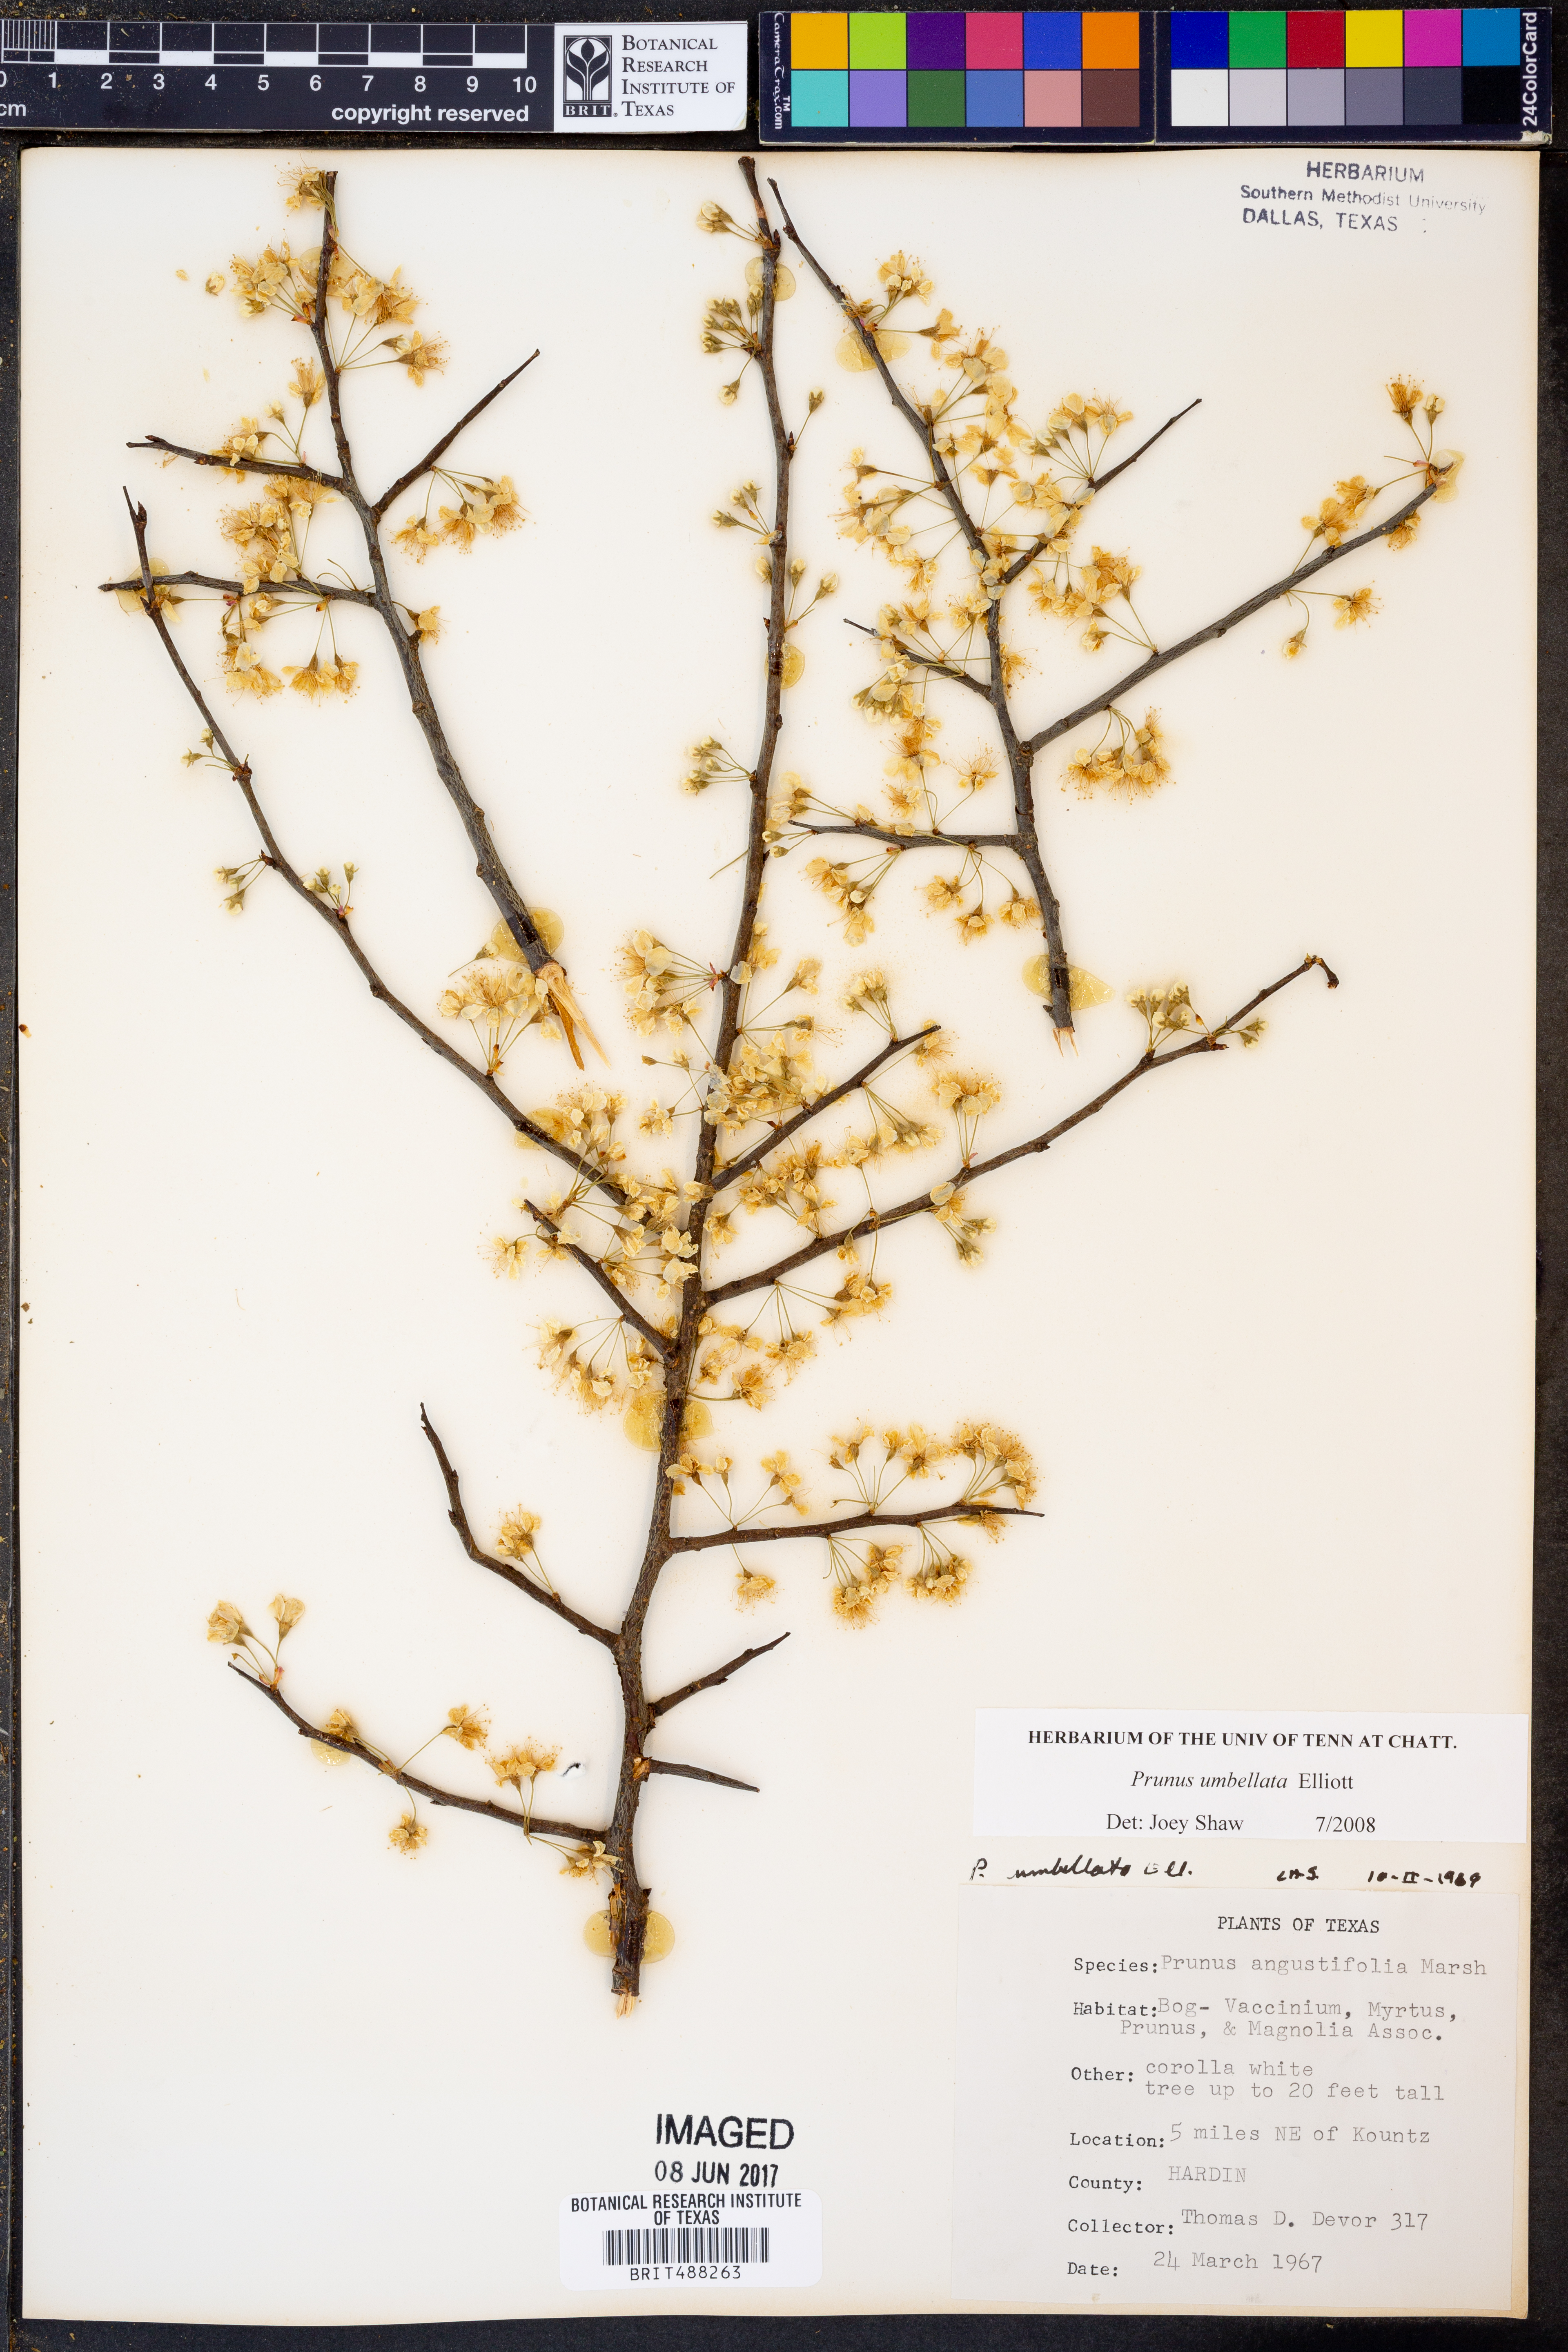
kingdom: Plantae
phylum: Tracheophyta
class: Magnoliopsida
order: Rosales
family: Rosaceae
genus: Prunus
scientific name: Prunus angustifolia
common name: Cherokee plum
